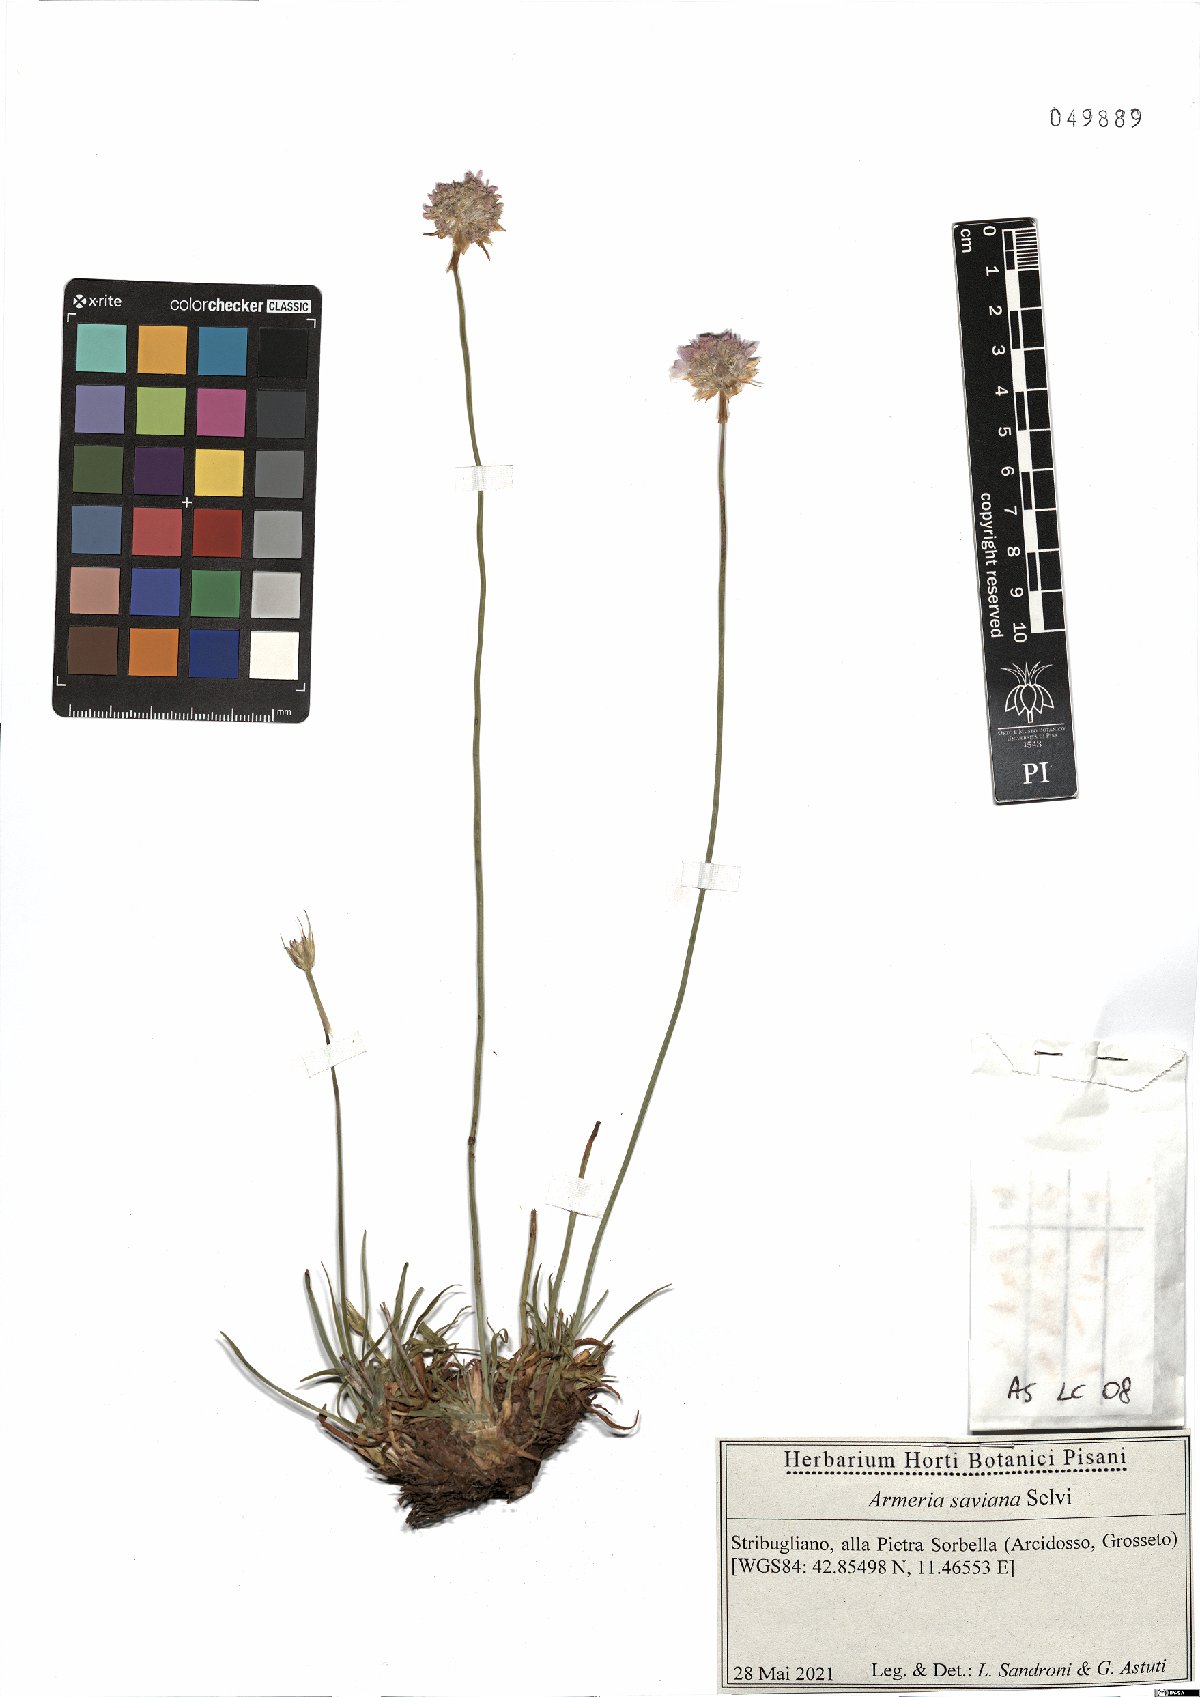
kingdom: Plantae
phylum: Tracheophyta
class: Magnoliopsida
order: Caryophyllales
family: Plumbaginaceae
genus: Armeria
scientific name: Armeria saviana
